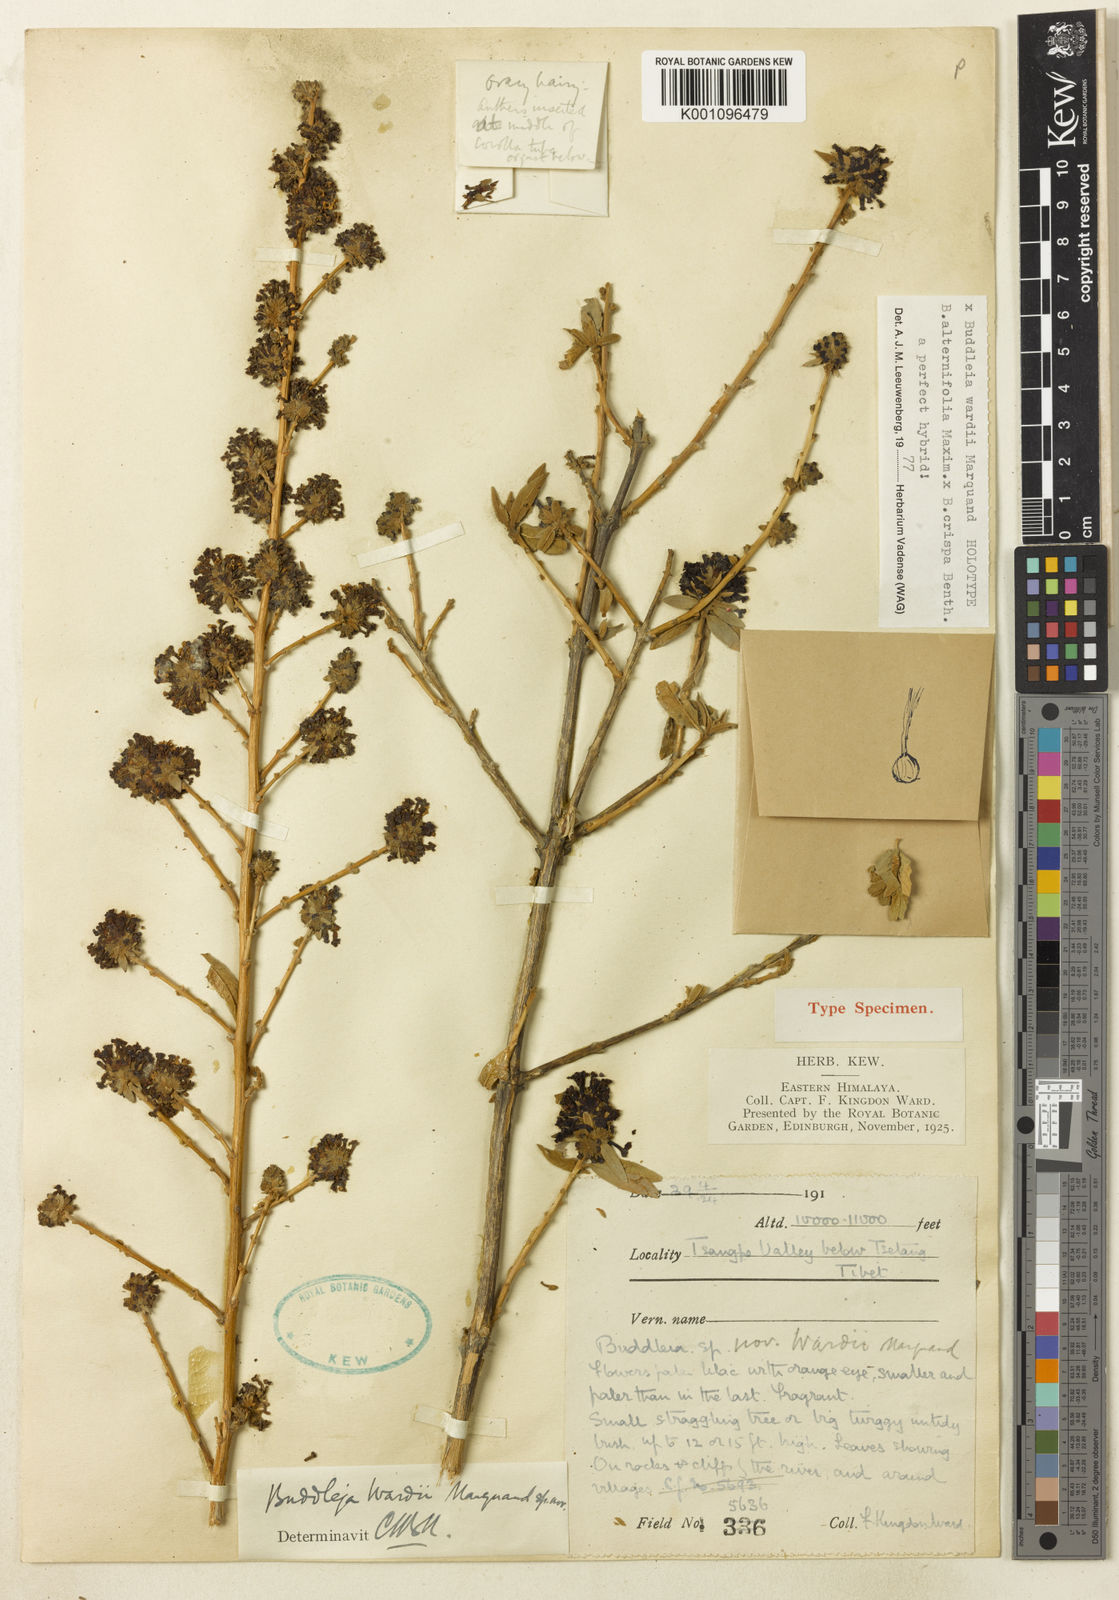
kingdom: Plantae
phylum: Tracheophyta
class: Magnoliopsida
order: Lamiales
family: Scrophulariaceae
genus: Buddleja
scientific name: Buddleja wardii
